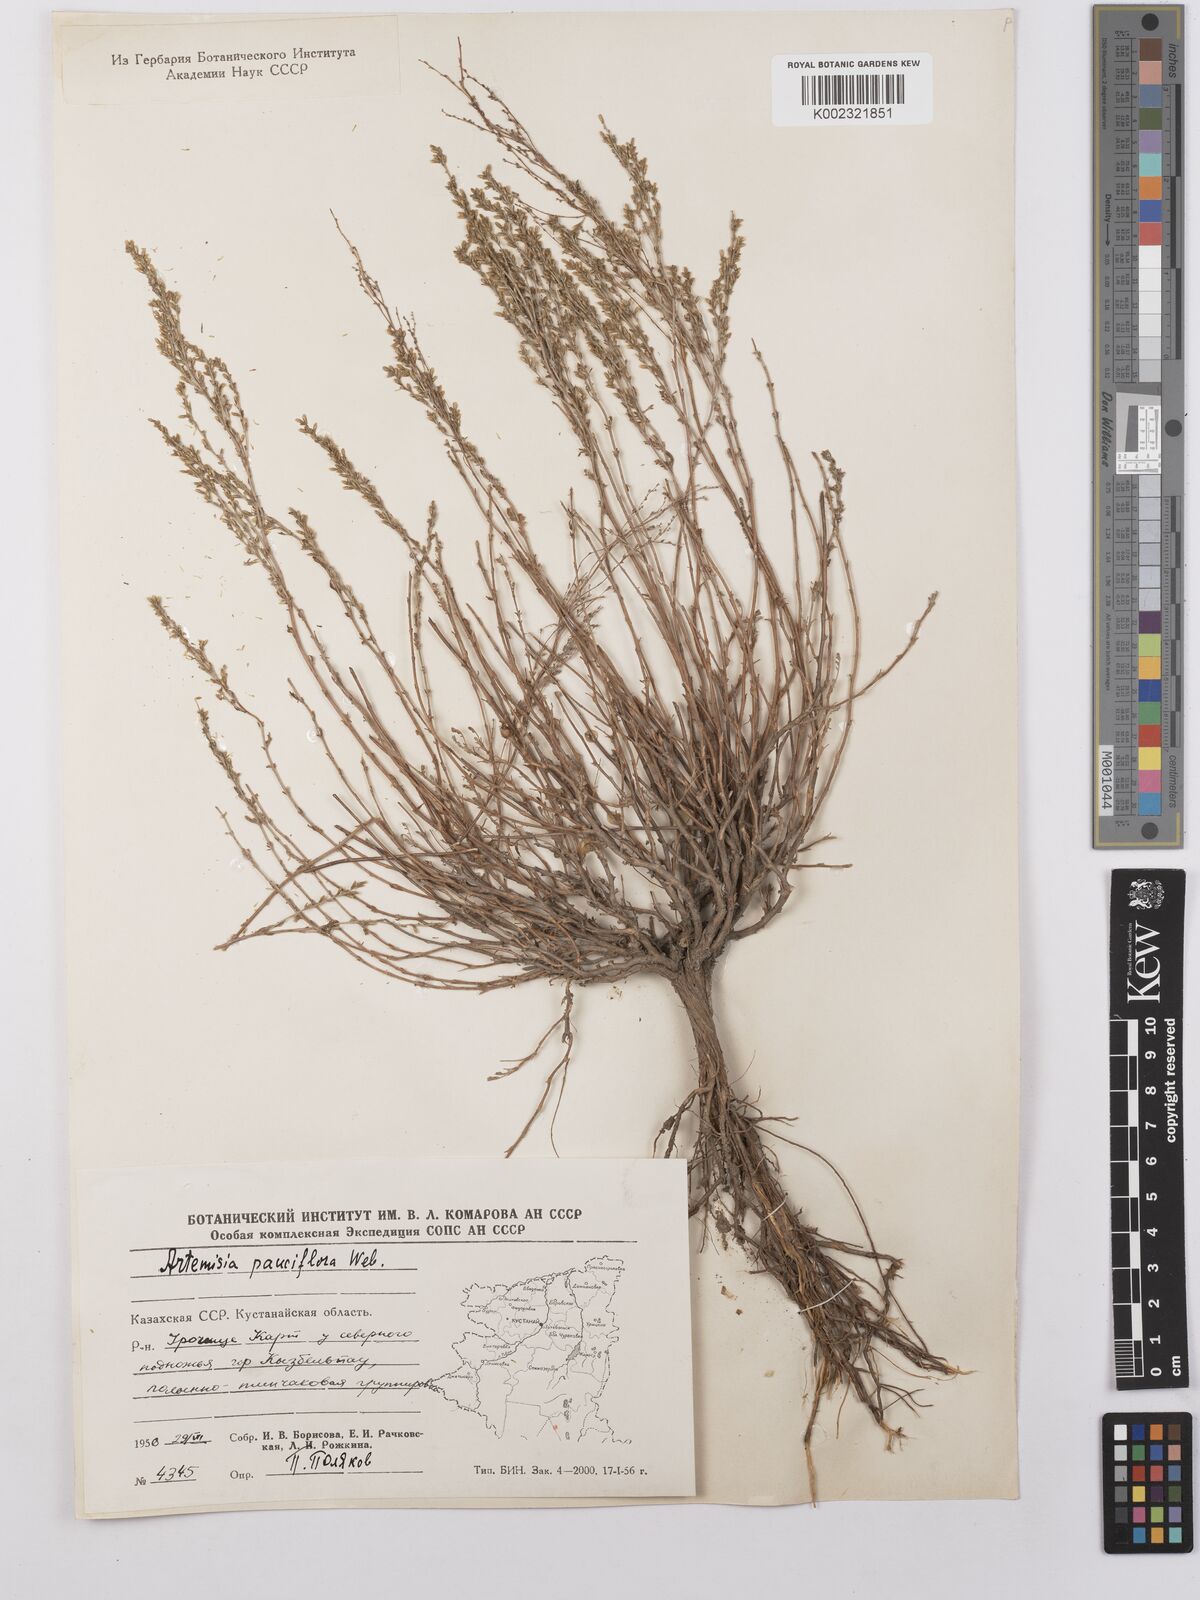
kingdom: Plantae
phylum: Tracheophyta
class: Magnoliopsida
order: Asterales
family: Asteraceae
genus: Artemisia
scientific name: Artemisia pauciflora
